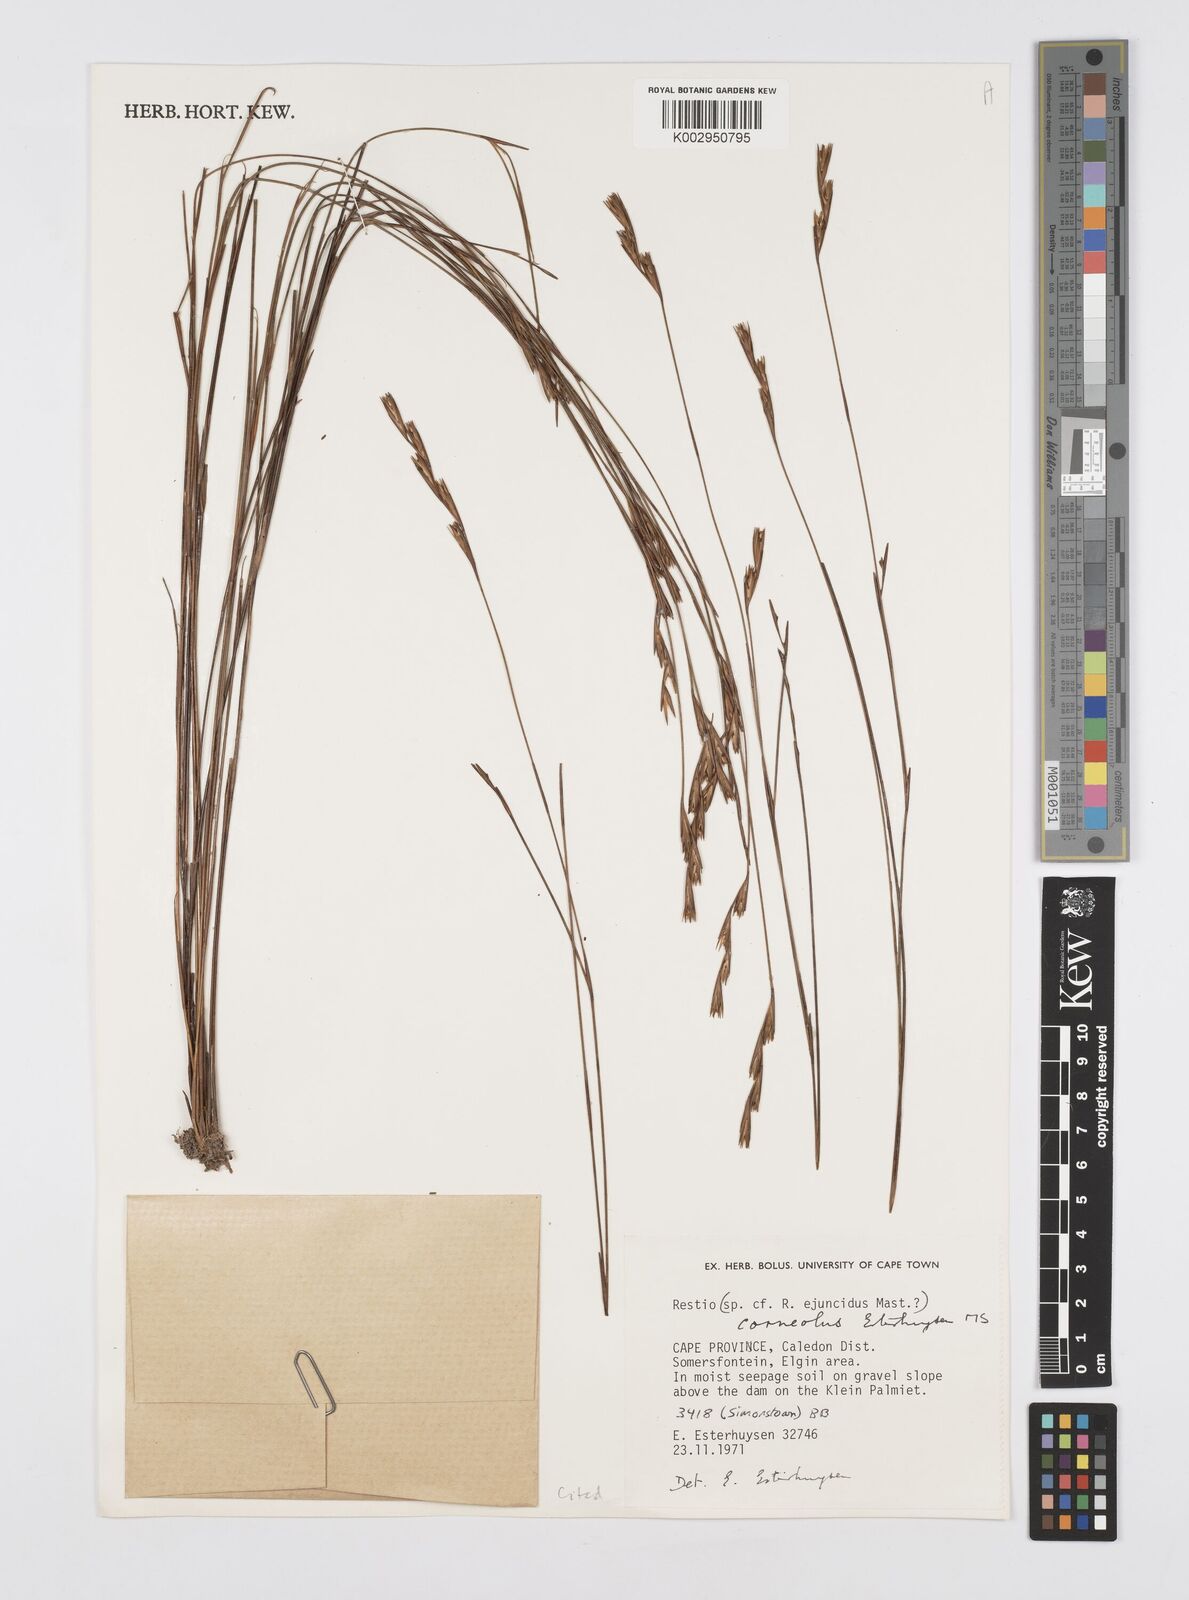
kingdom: Plantae
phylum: Tracheophyta
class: Liliopsida
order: Poales
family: Restionaceae
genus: Restio
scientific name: Restio corneolus
